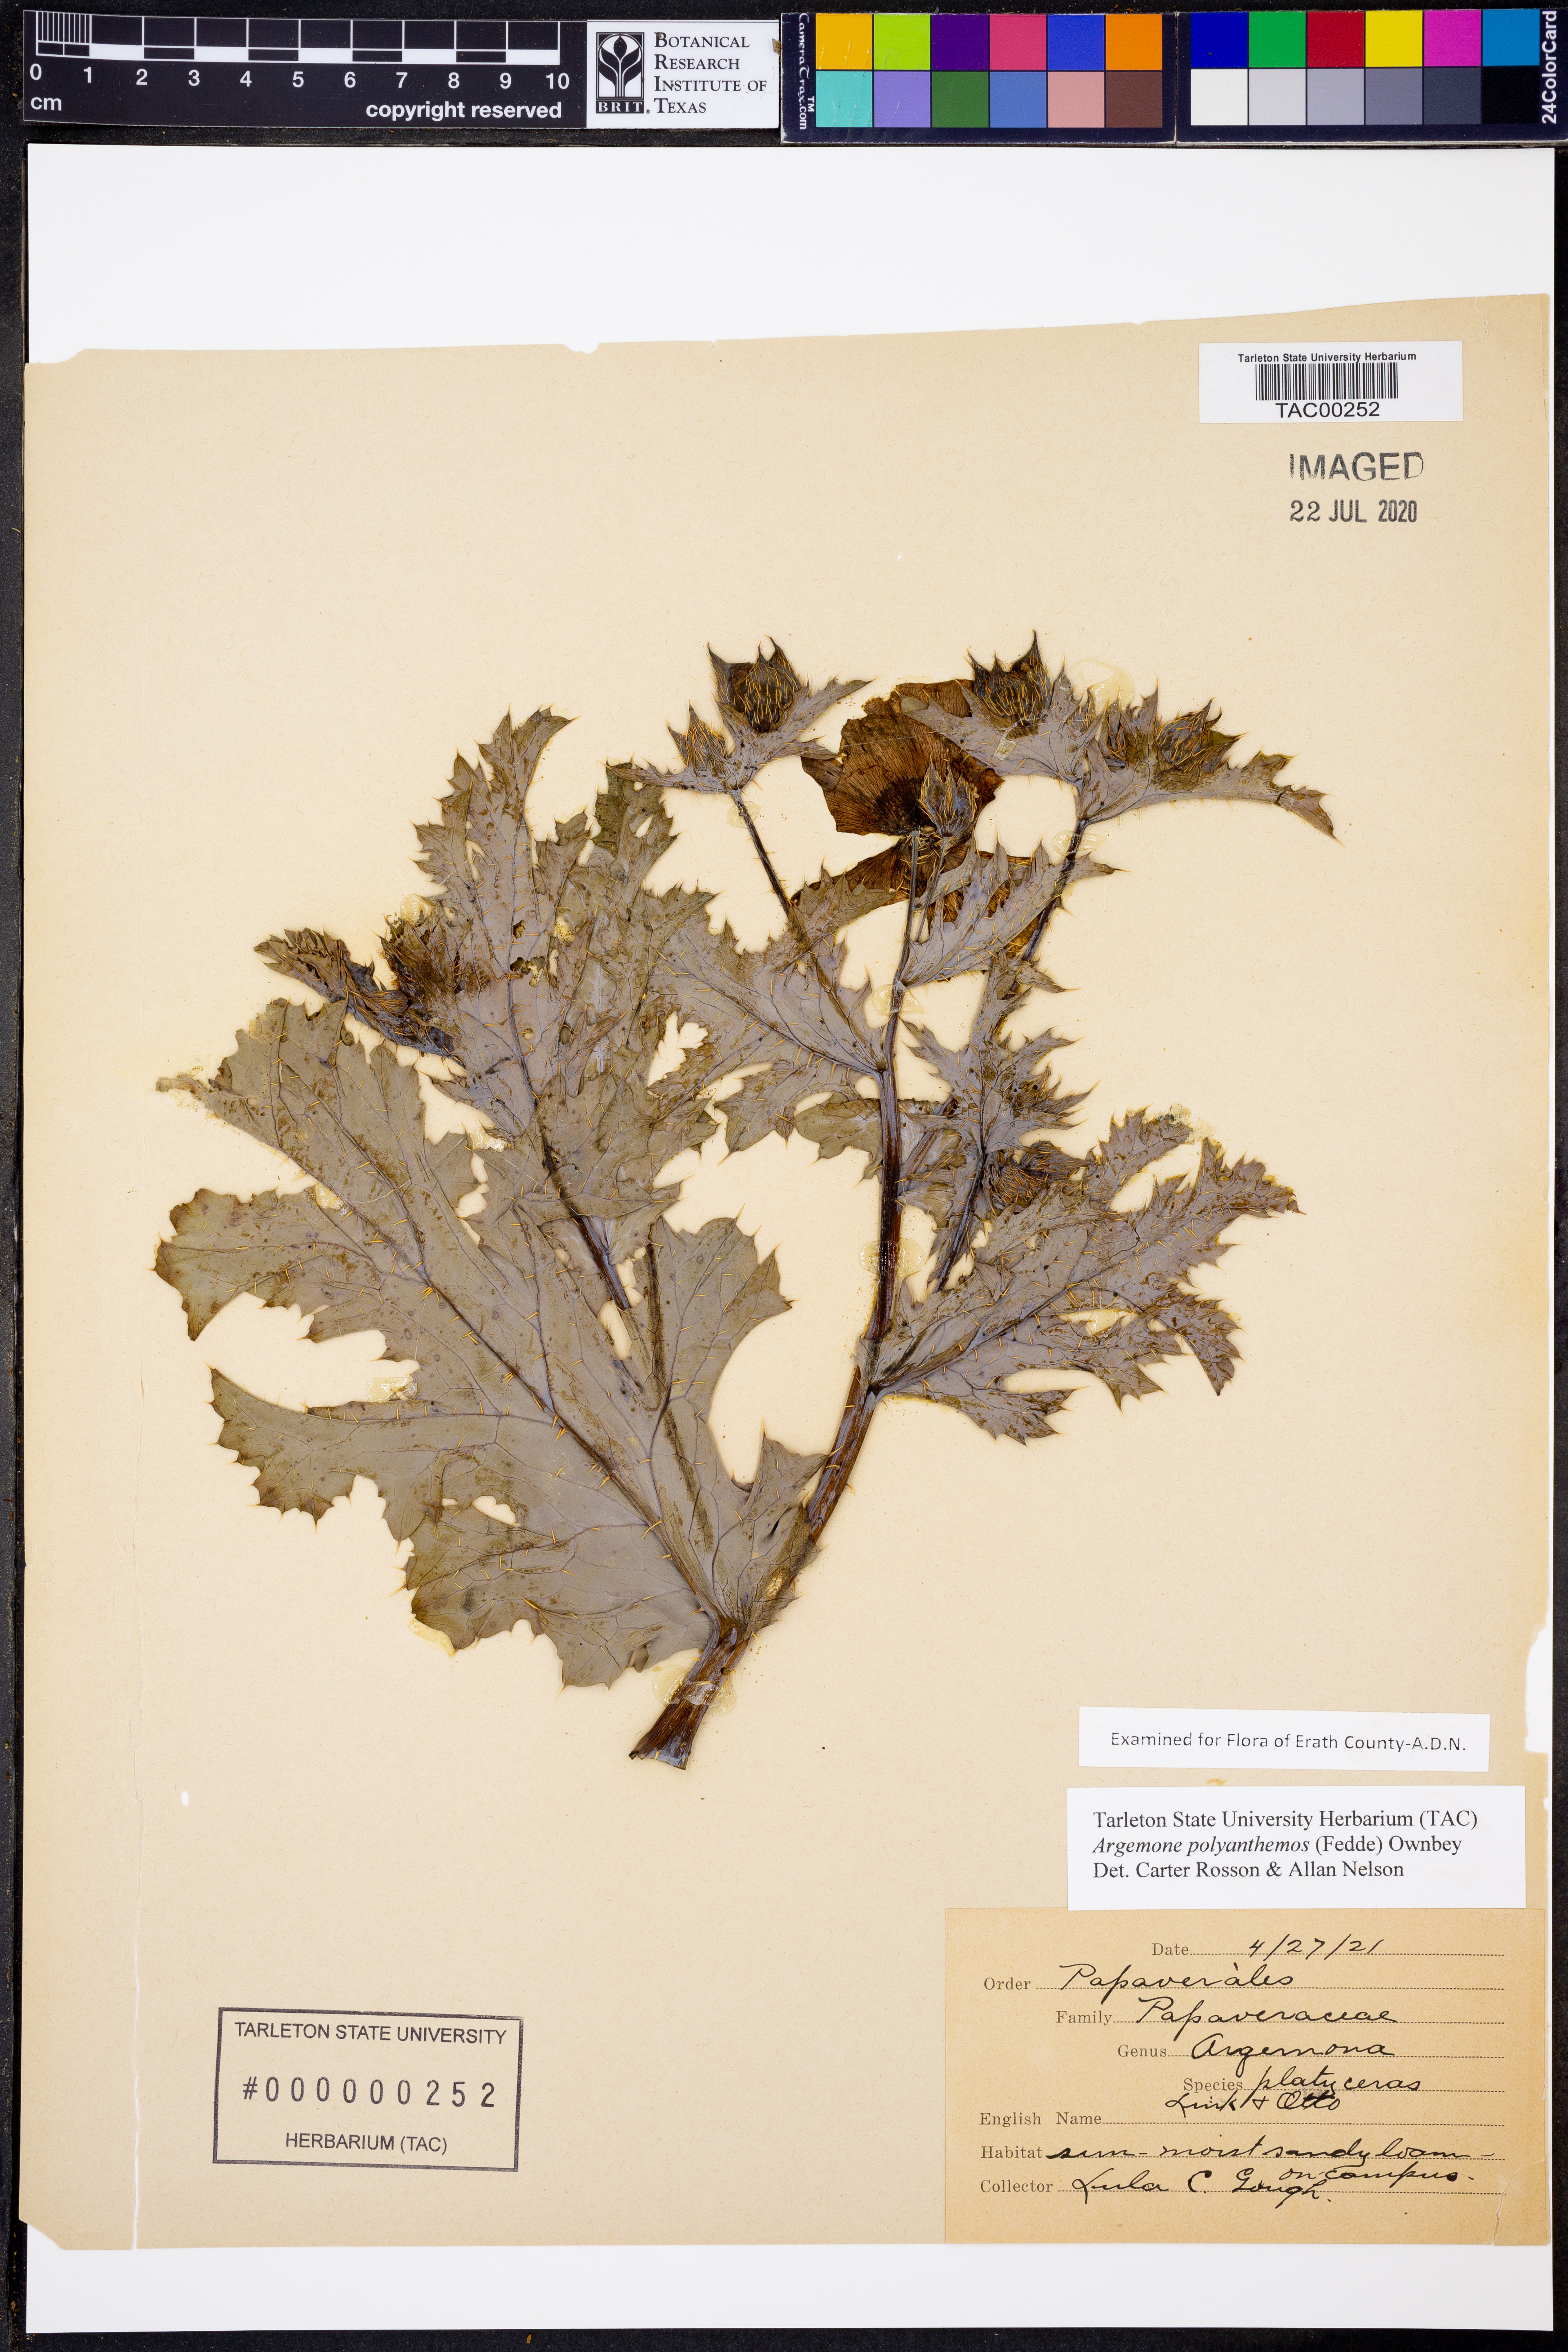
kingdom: Plantae
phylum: Tracheophyta
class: Magnoliopsida
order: Ranunculales
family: Papaveraceae
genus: Argemone
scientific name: Argemone polyanthemos
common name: Plains prickly-poppy
